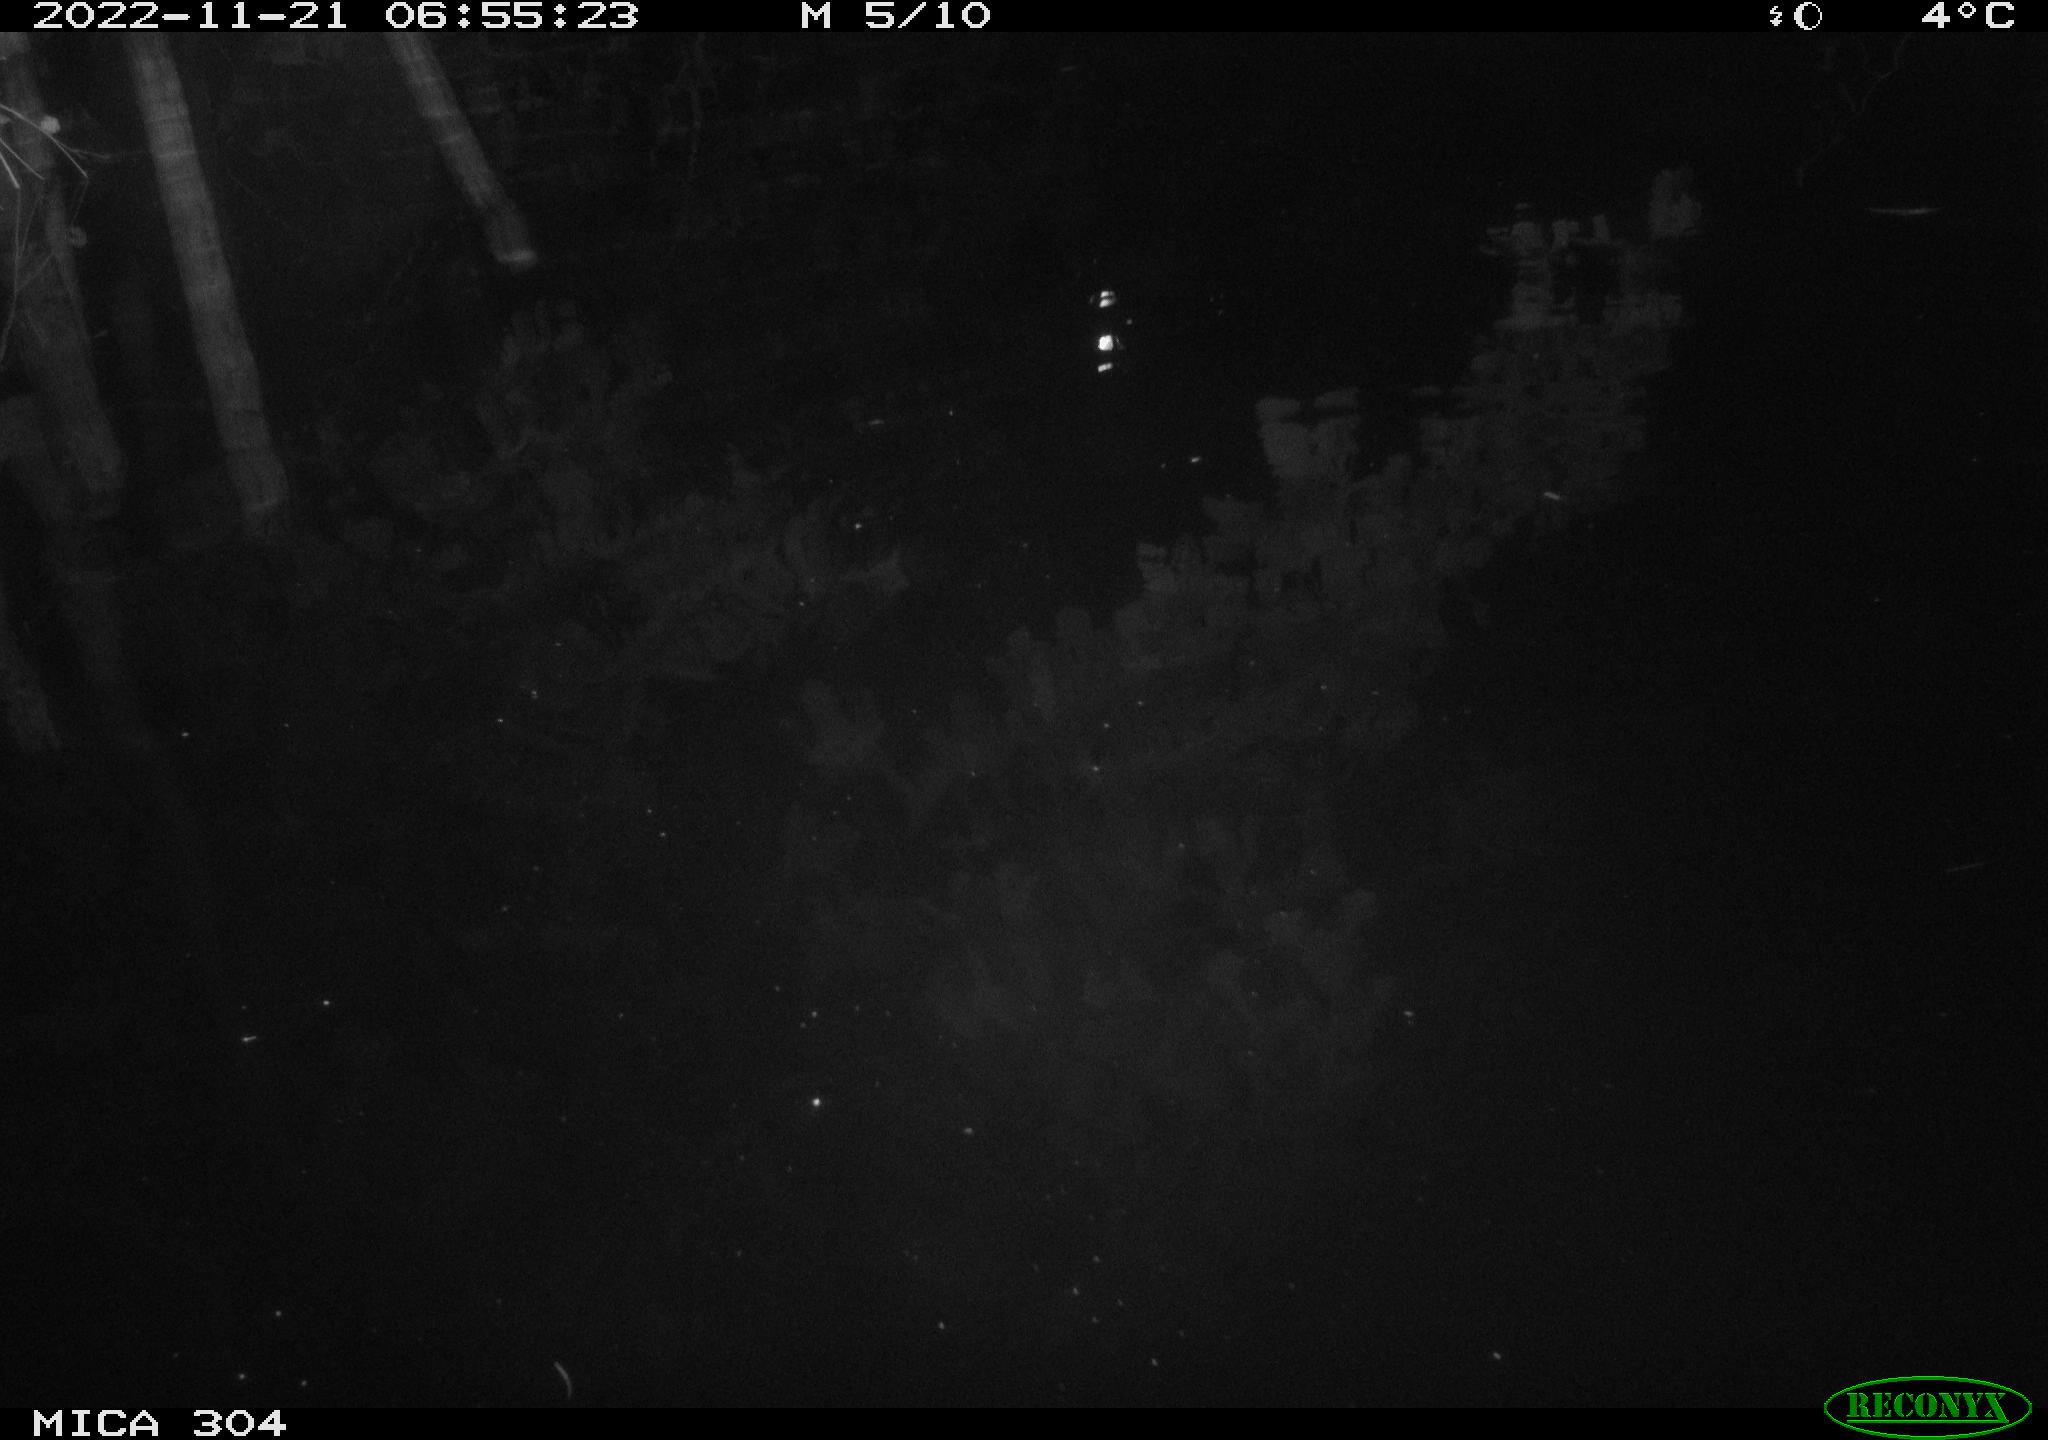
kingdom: Animalia
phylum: Chordata
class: Aves
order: Anseriformes
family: Anatidae
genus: Anas
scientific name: Anas
